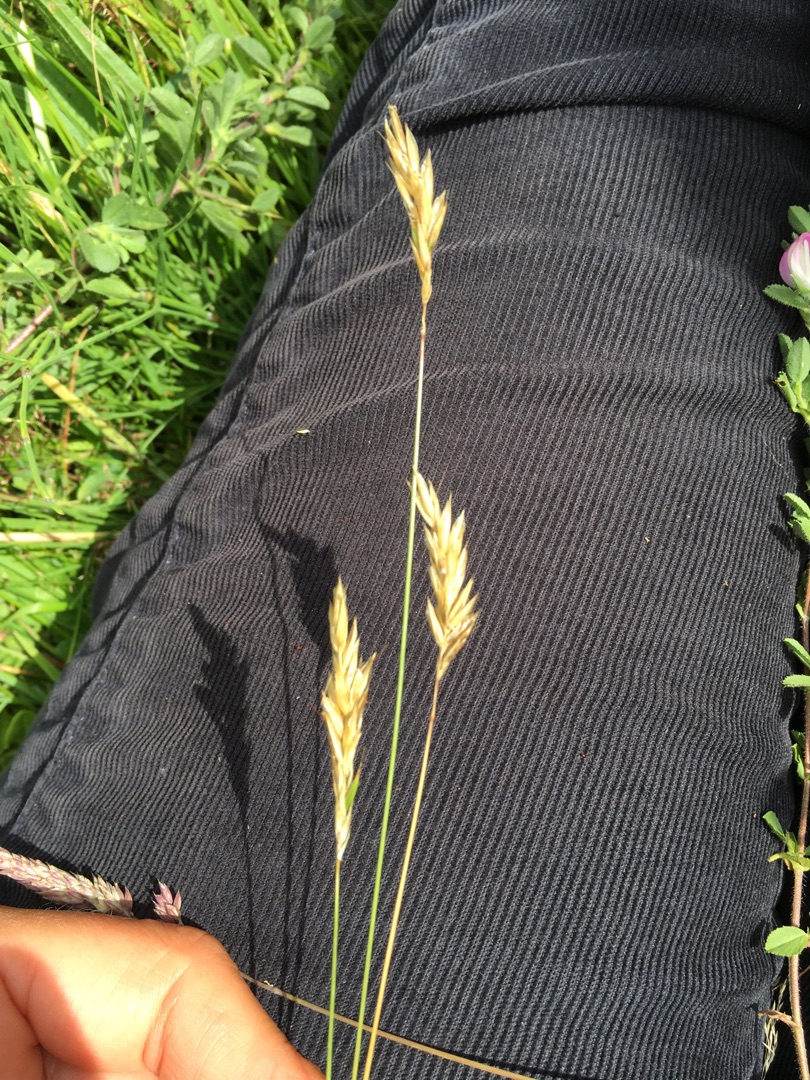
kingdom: Plantae
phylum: Tracheophyta
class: Liliopsida
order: Poales
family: Poaceae
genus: Anthoxanthum
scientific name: Anthoxanthum odoratum
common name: Vellugtende gulaks
